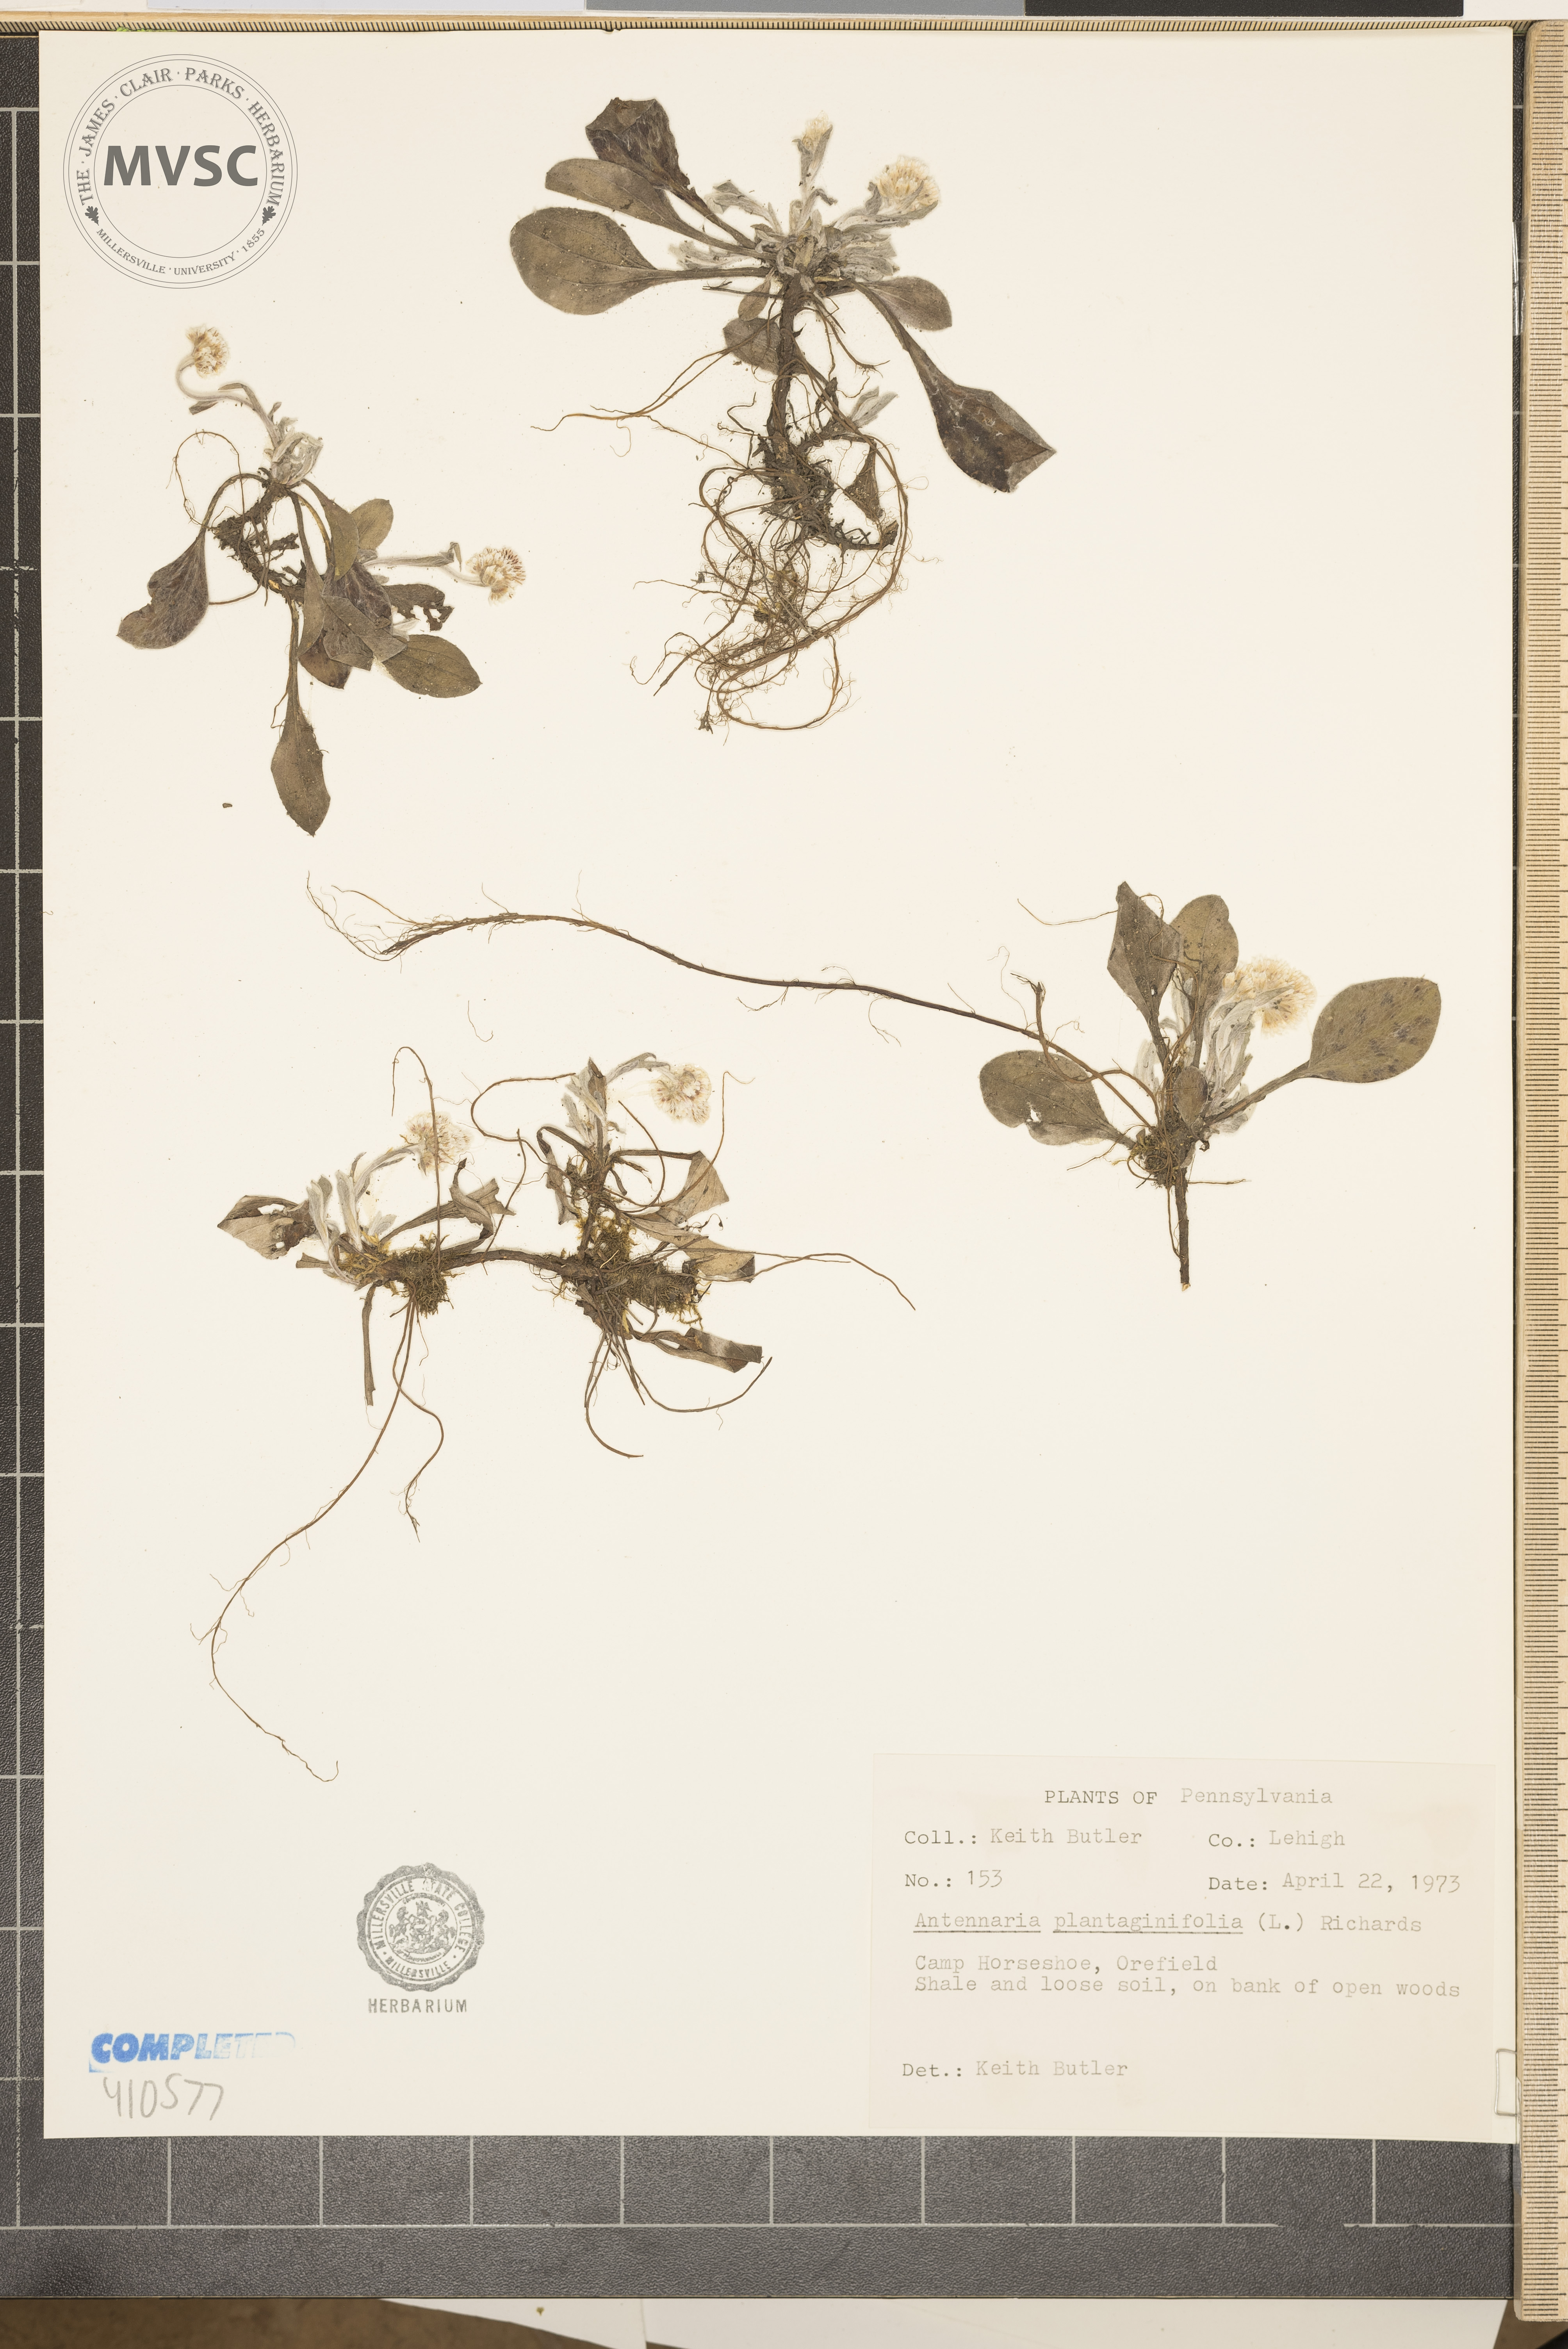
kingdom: Plantae
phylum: Tracheophyta
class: Magnoliopsida
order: Asterales
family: Asteraceae
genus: Antennaria
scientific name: Antennaria plantaginifolia
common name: Plantain-leaved pussytoes
